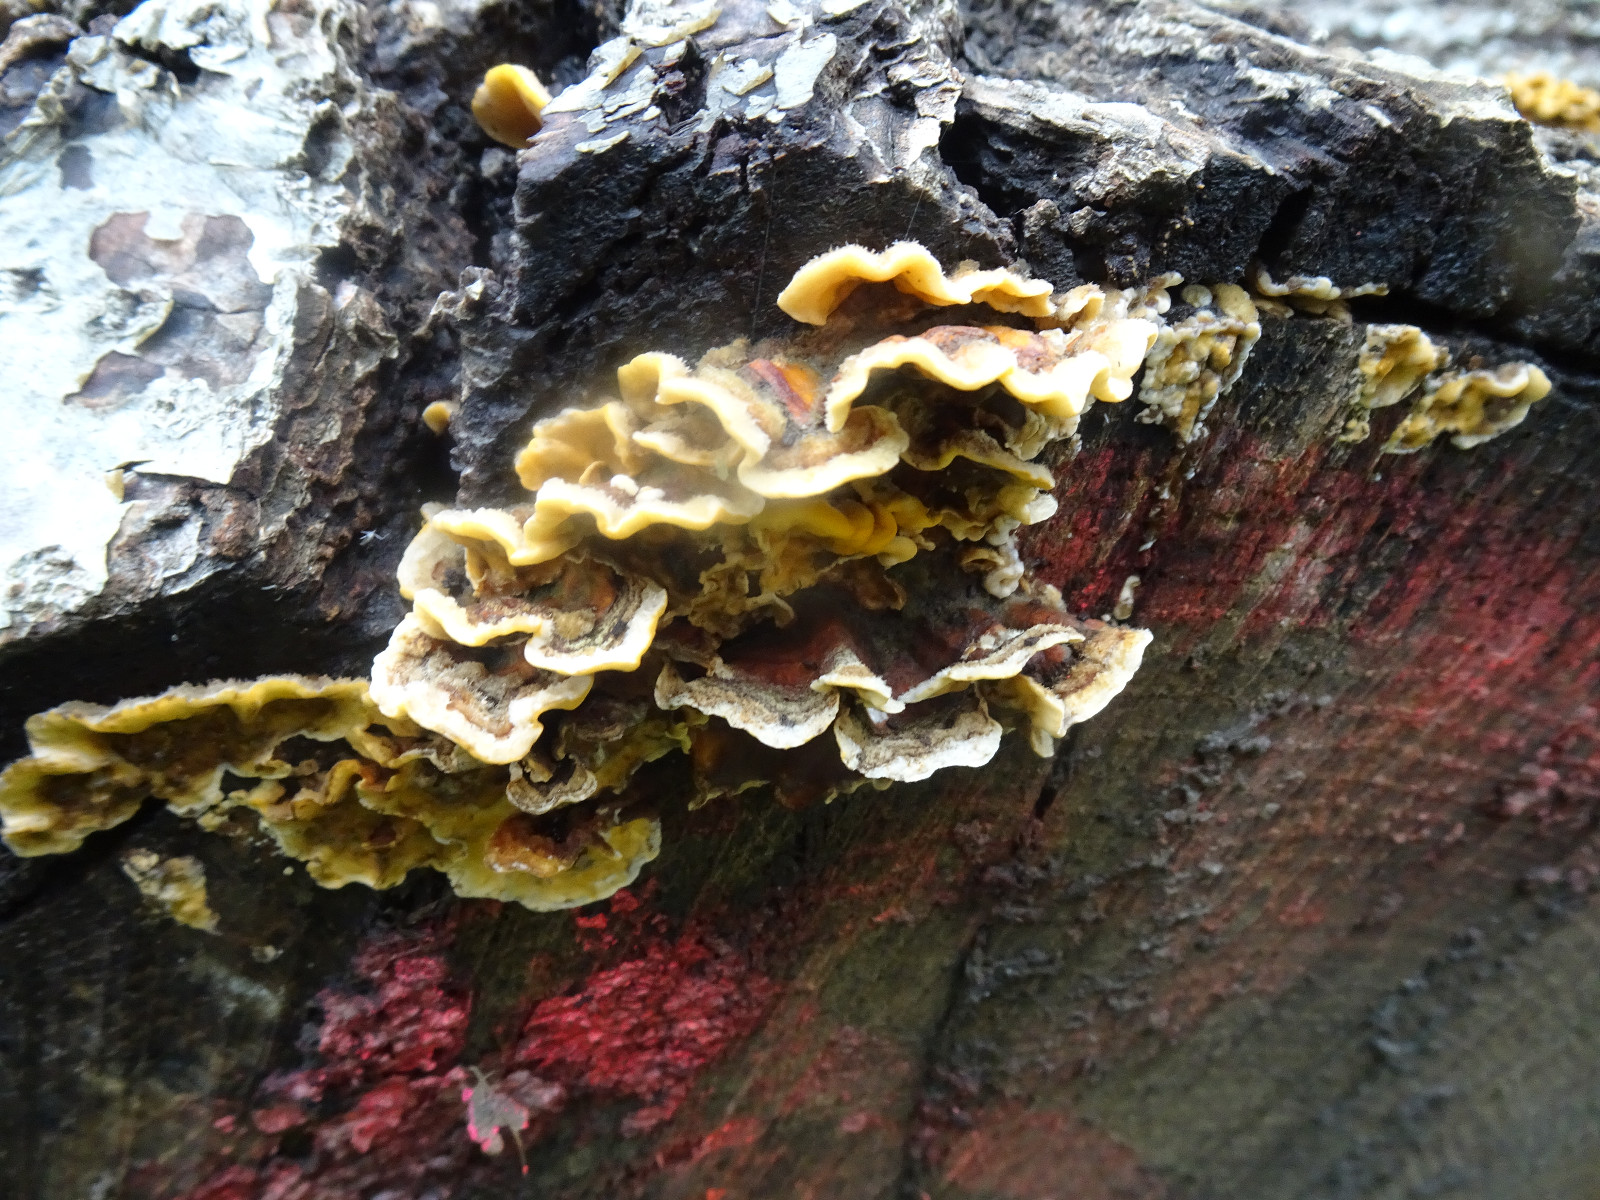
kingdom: Fungi
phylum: Basidiomycota
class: Agaricomycetes
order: Russulales
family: Stereaceae
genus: Stereum
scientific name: Stereum hirsutum
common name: håret lædersvamp
